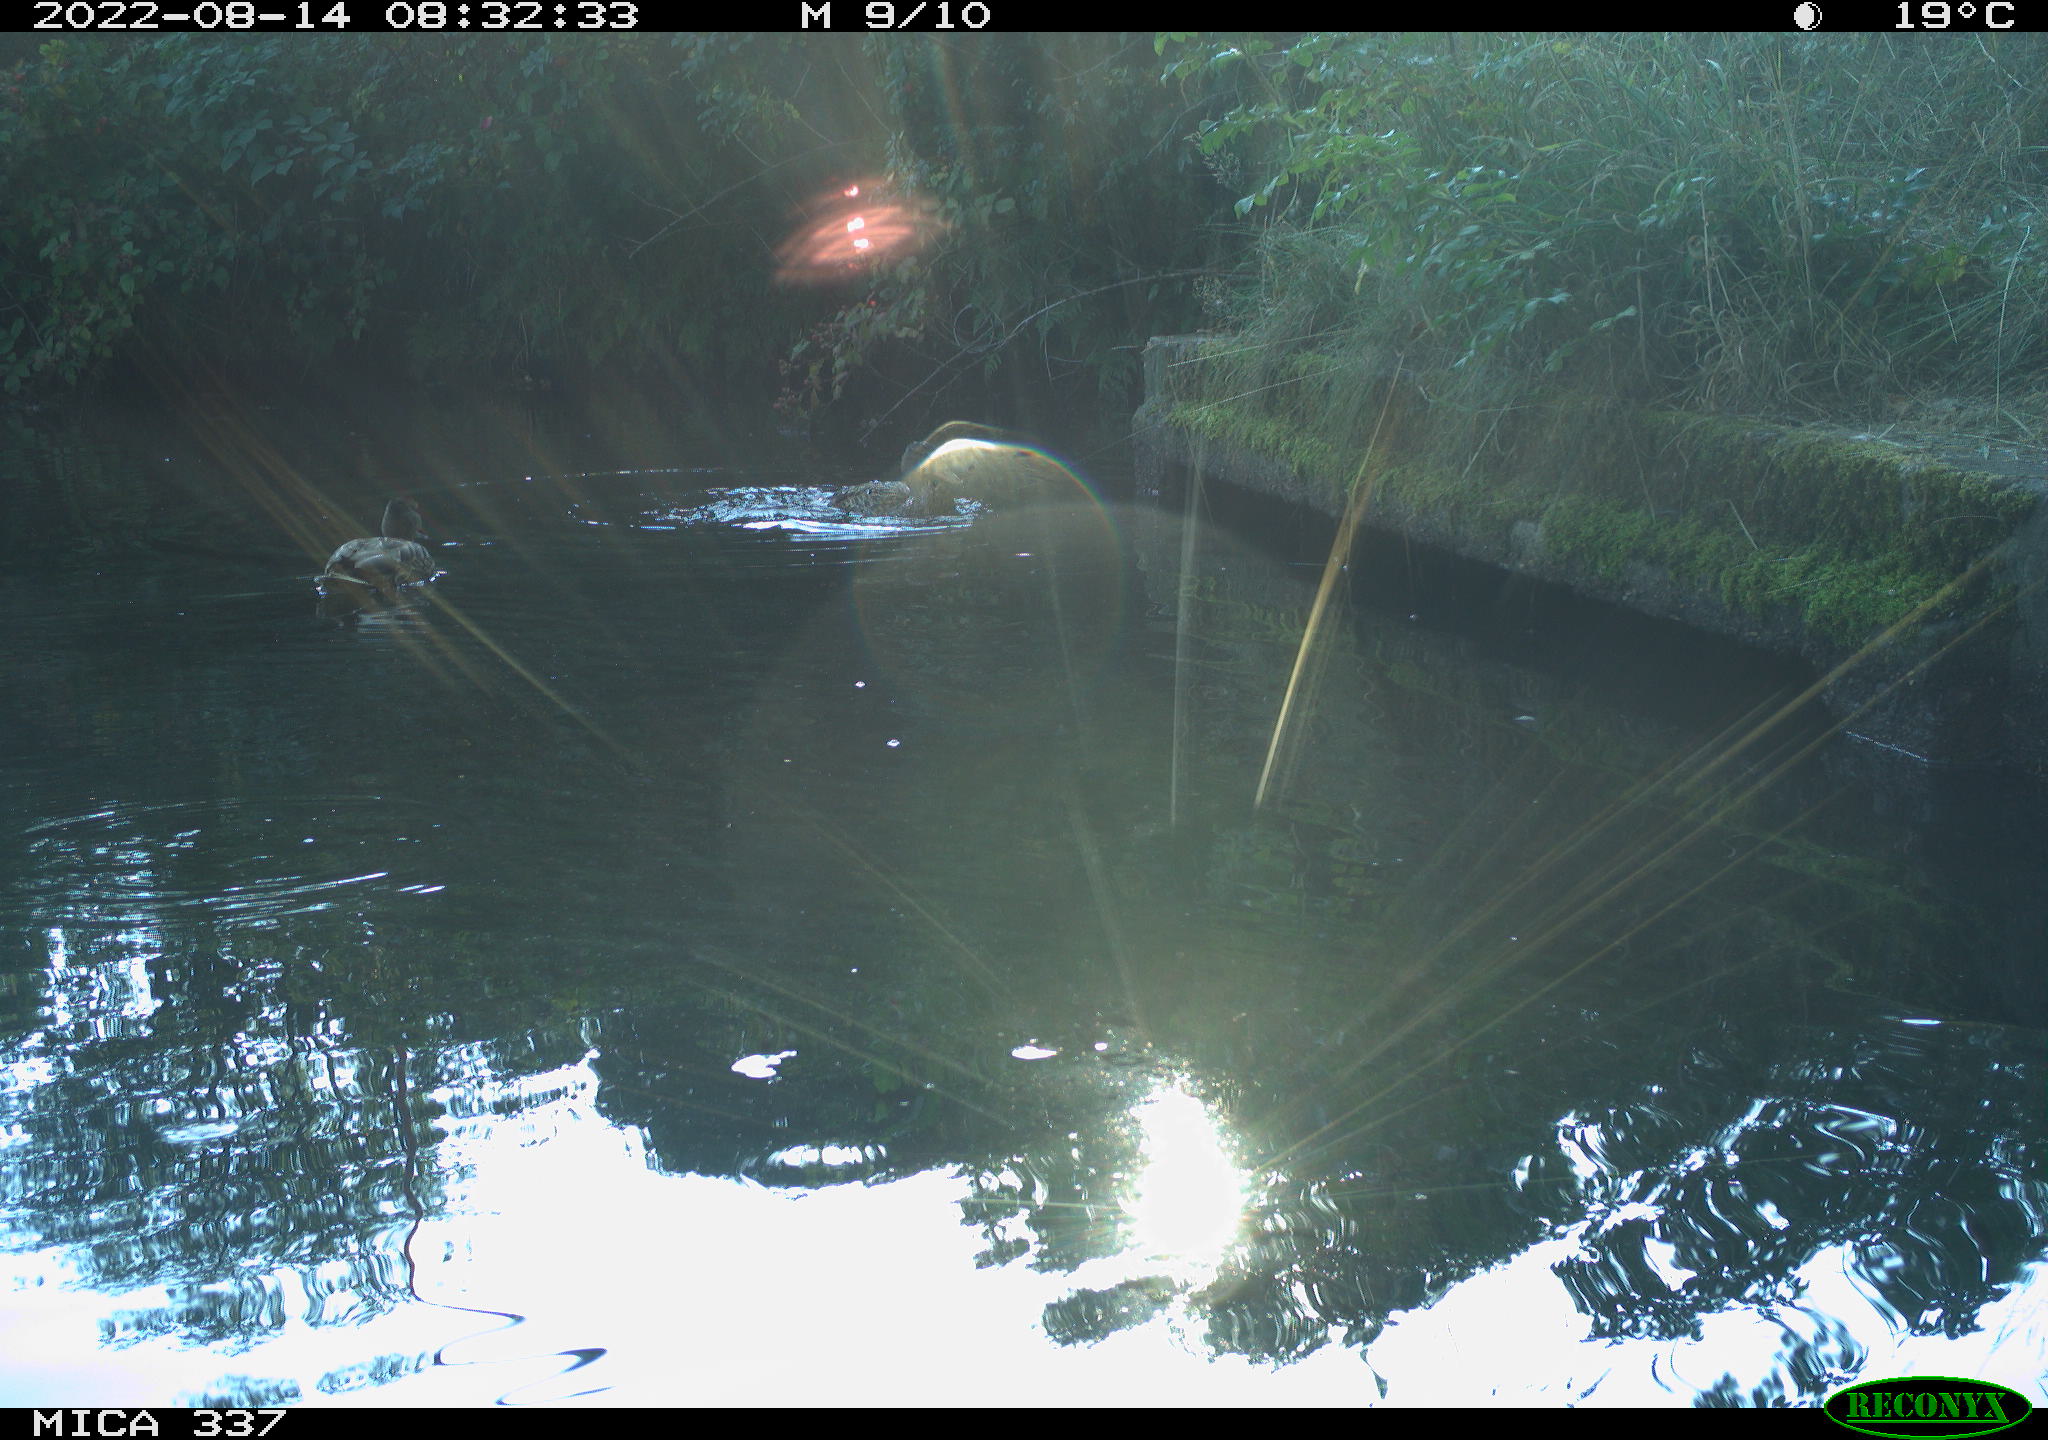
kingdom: Animalia
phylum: Chordata
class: Aves
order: Anseriformes
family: Anatidae
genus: Anas
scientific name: Anas platyrhynchos
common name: Mallard
